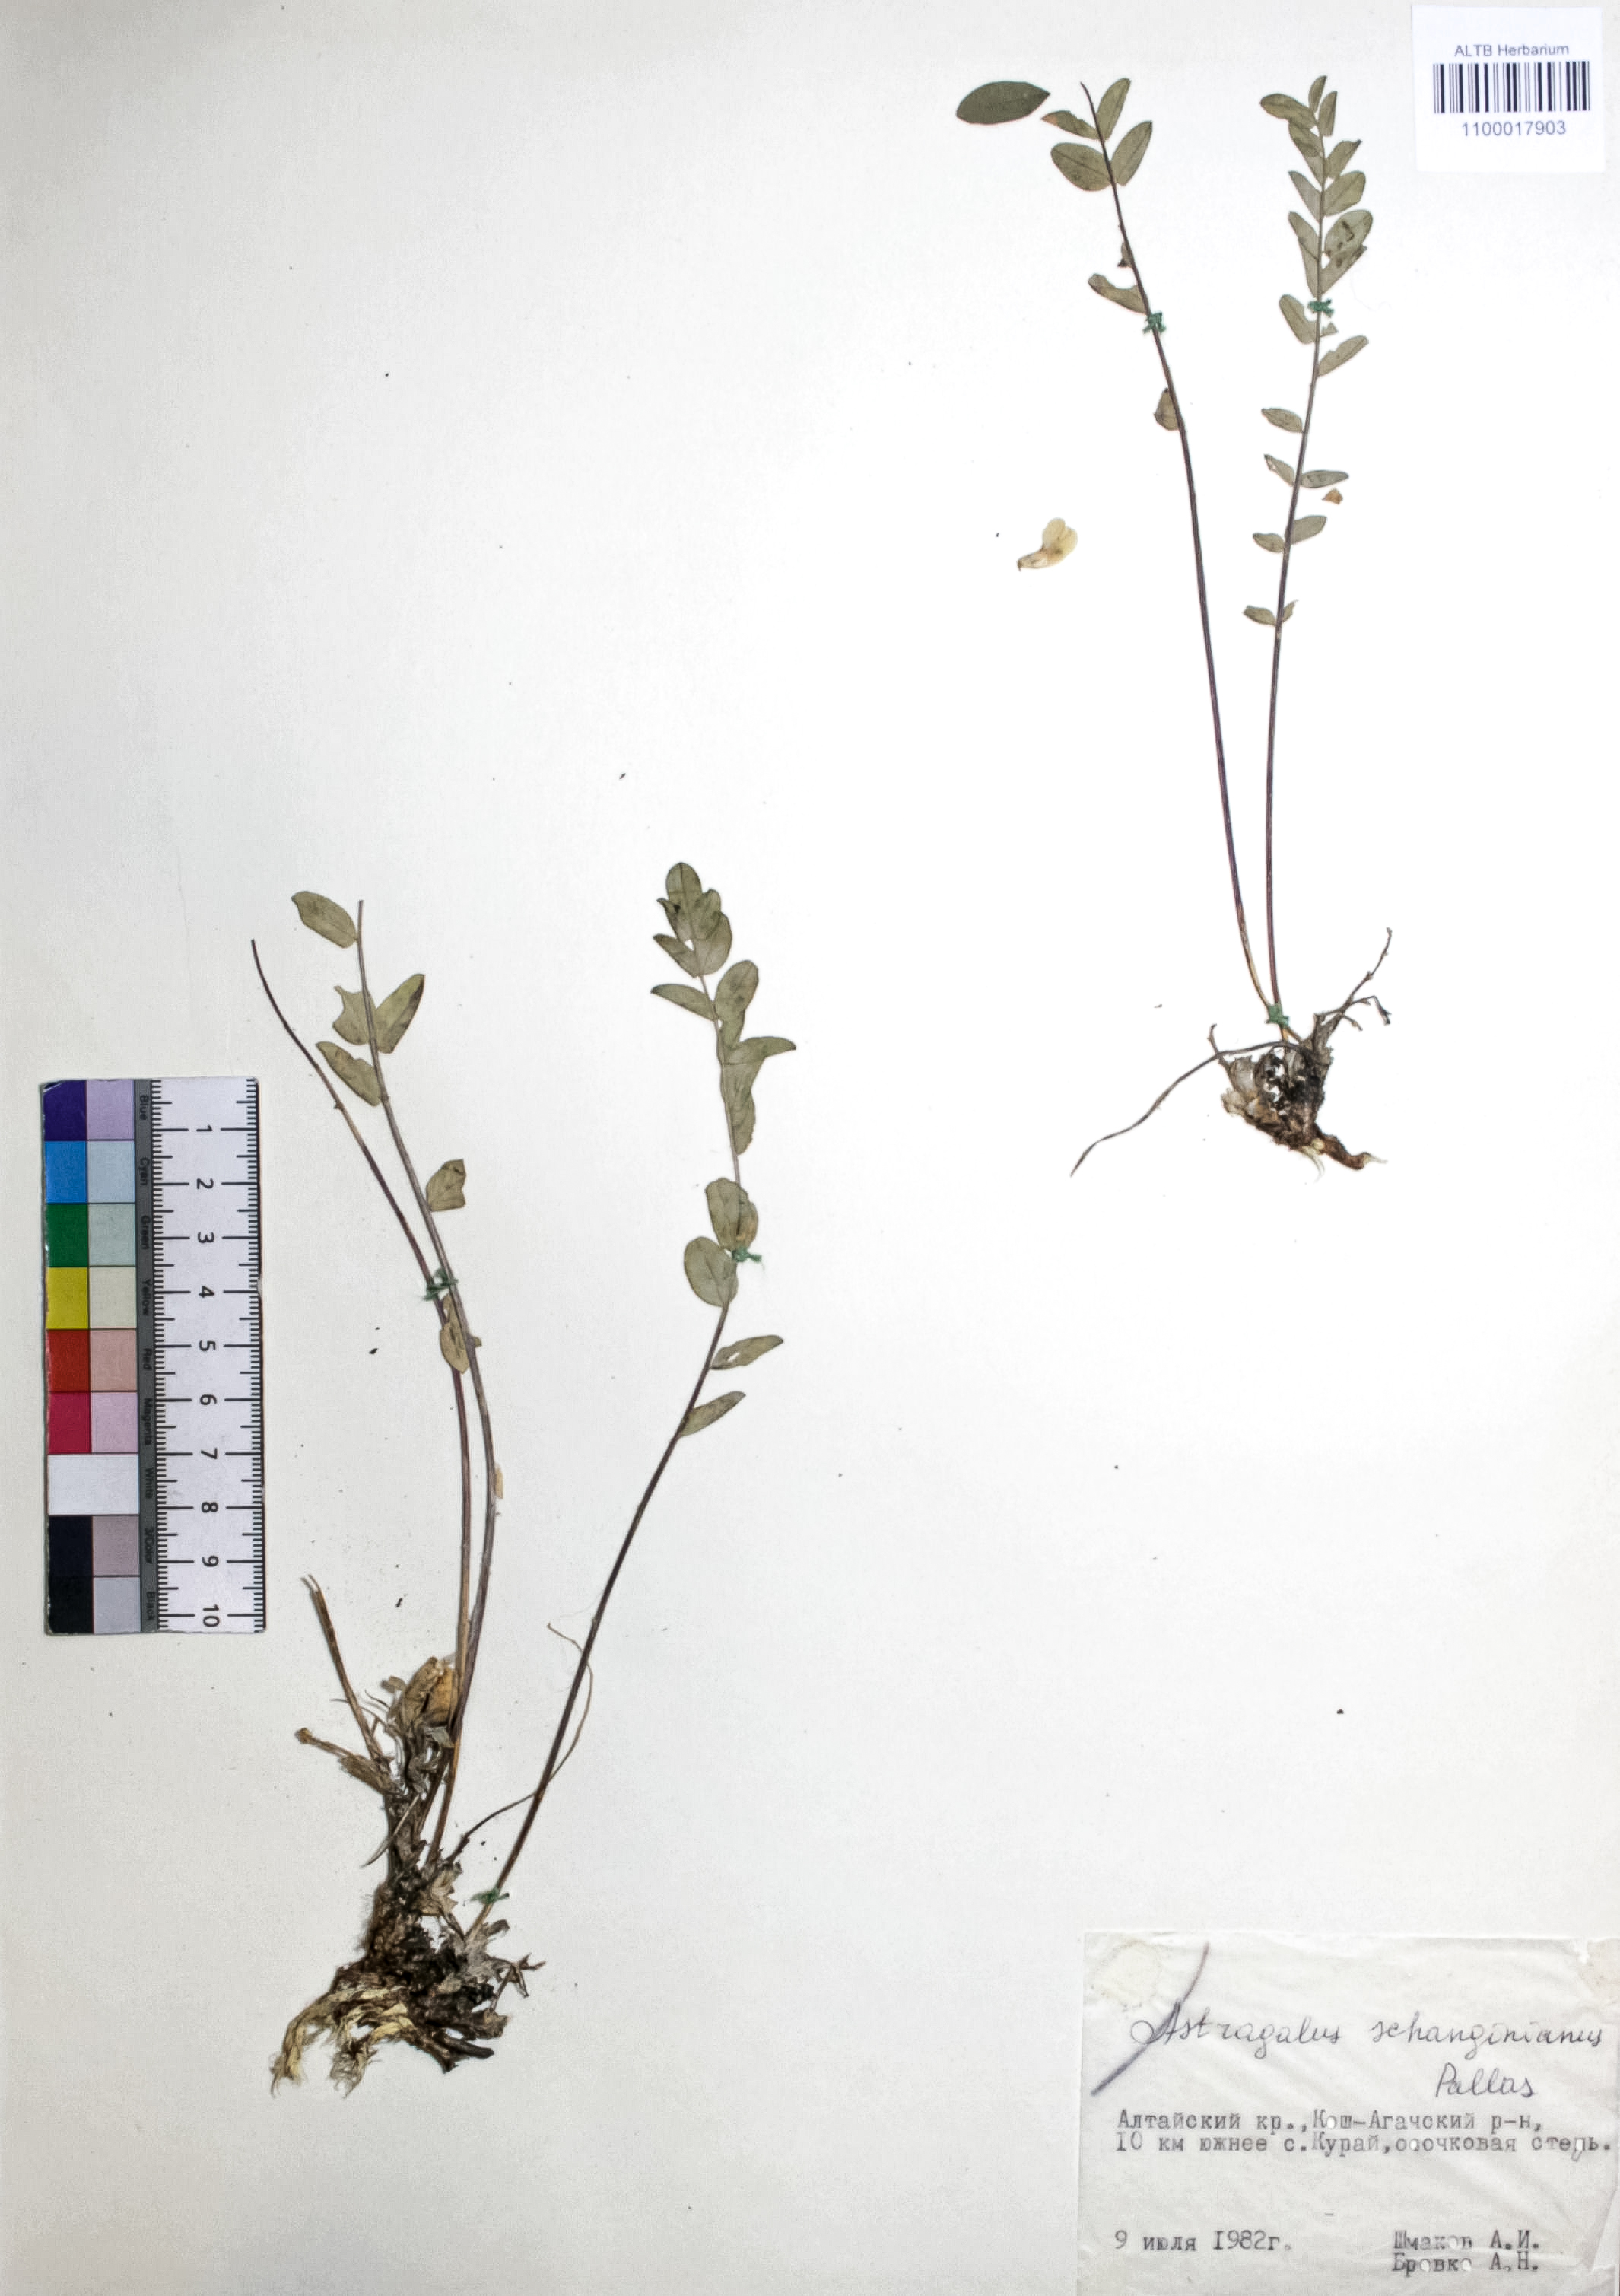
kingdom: Plantae
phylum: Tracheophyta
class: Magnoliopsida
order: Fabales
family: Fabaceae
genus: Astragalus
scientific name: Astragalus schanginianus
